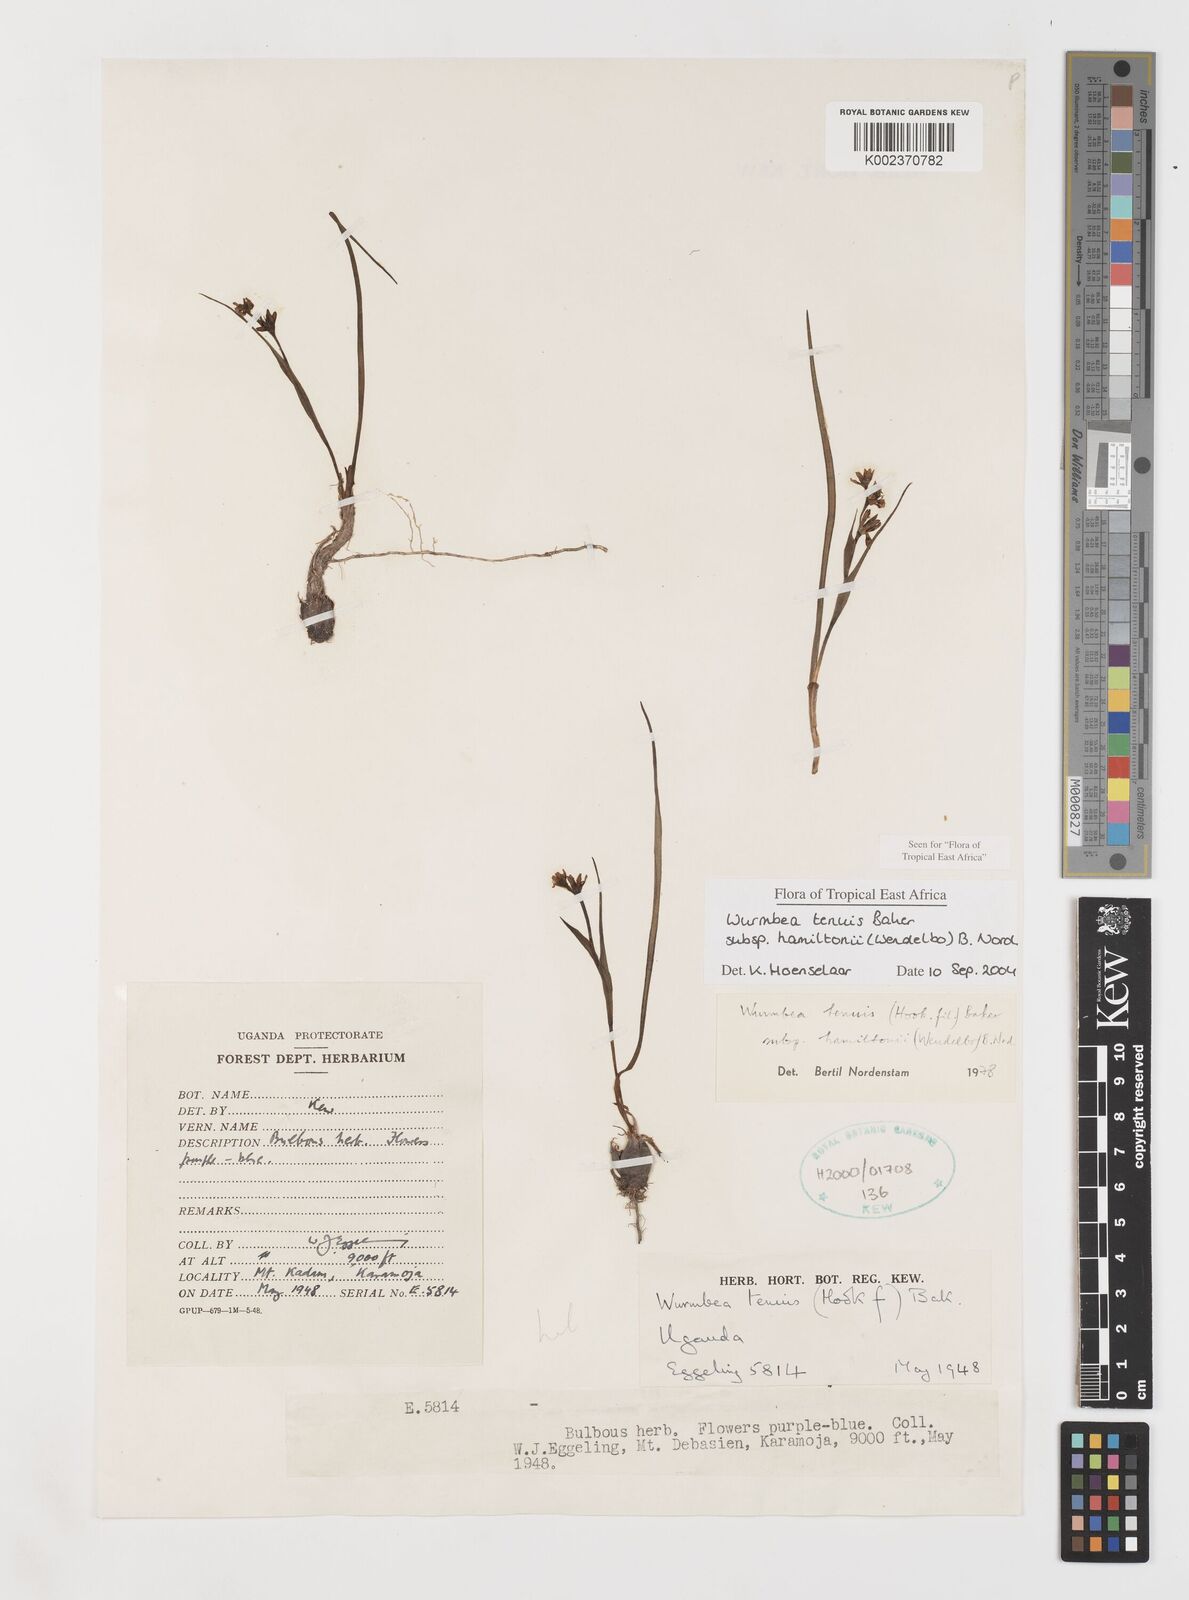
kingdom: Plantae
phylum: Tracheophyta
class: Liliopsida
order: Liliales
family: Colchicaceae
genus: Wurmbea
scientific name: Wurmbea tenuis
